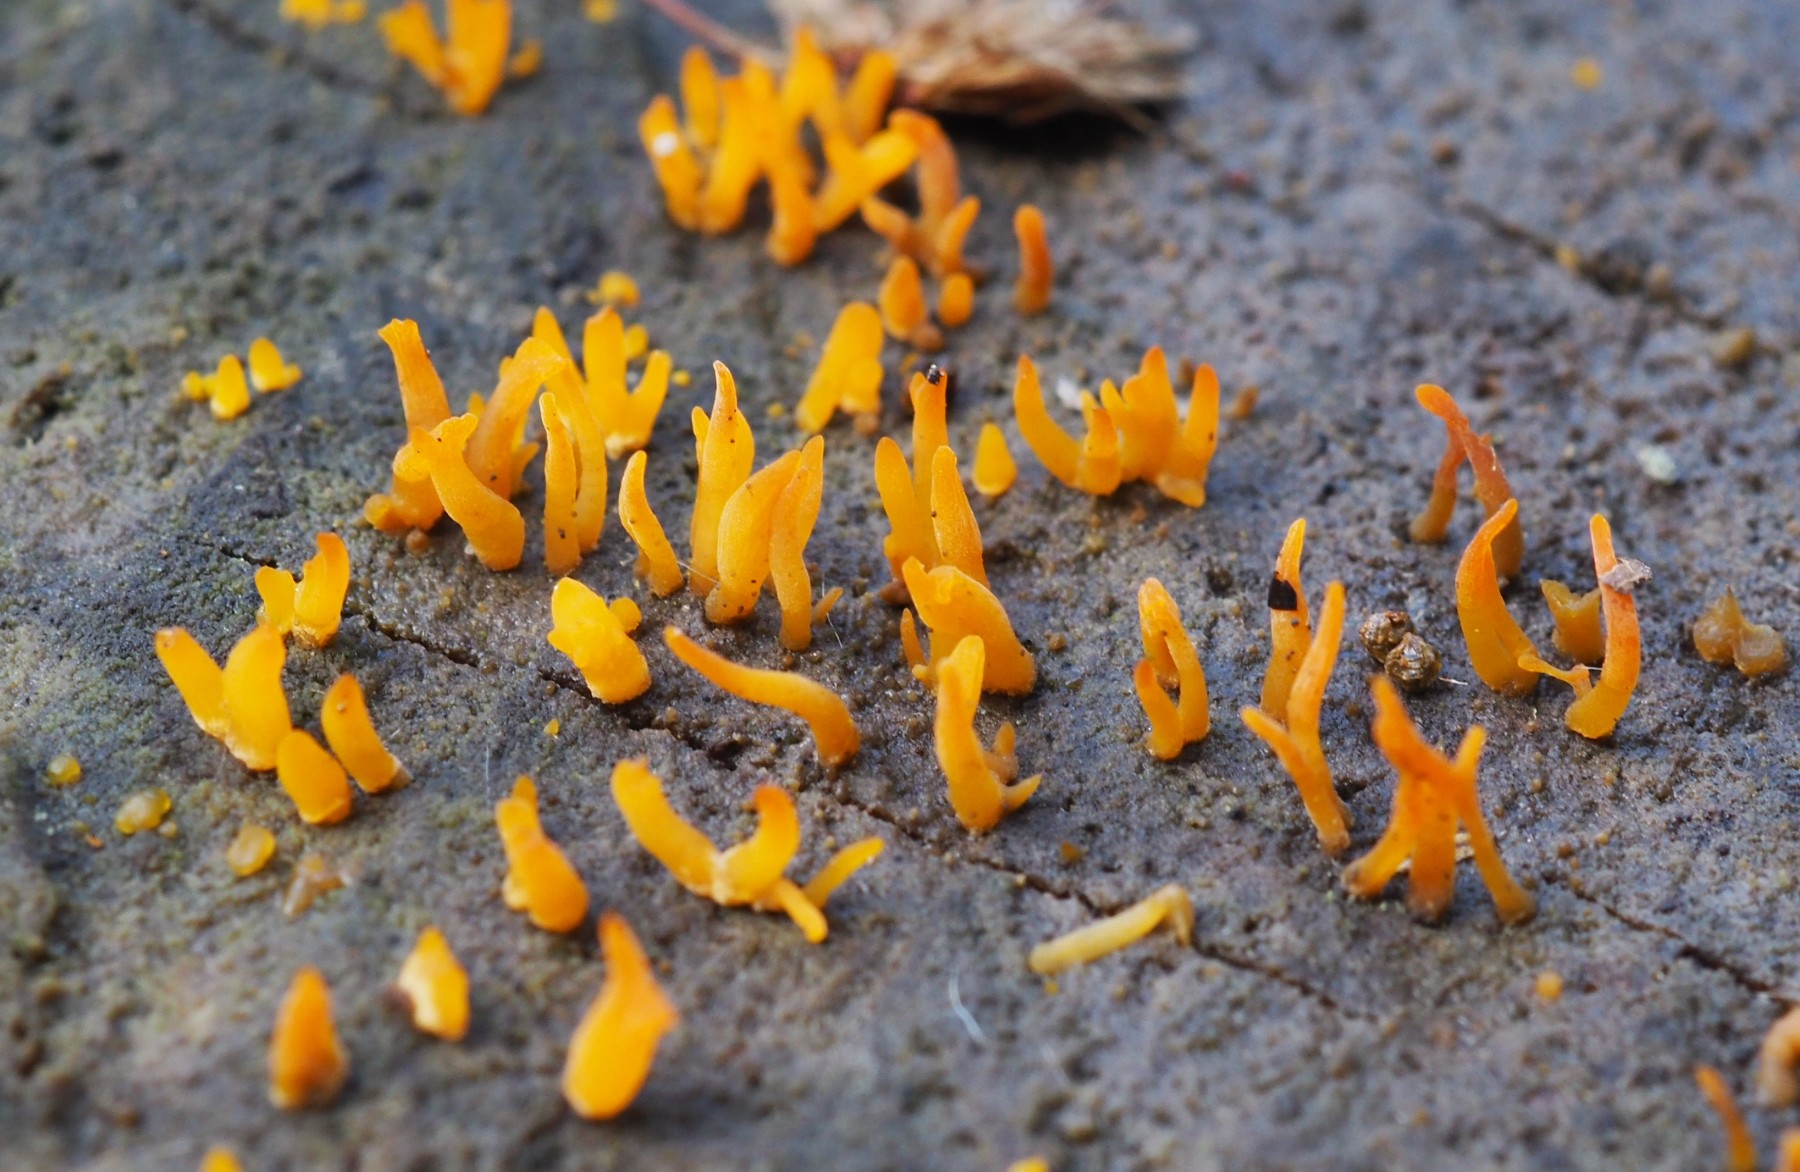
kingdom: Fungi
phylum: Basidiomycota
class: Dacrymycetes
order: Dacrymycetales
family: Dacrymycetaceae
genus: Calocera
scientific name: Calocera cornea
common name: liden guldgaffel
